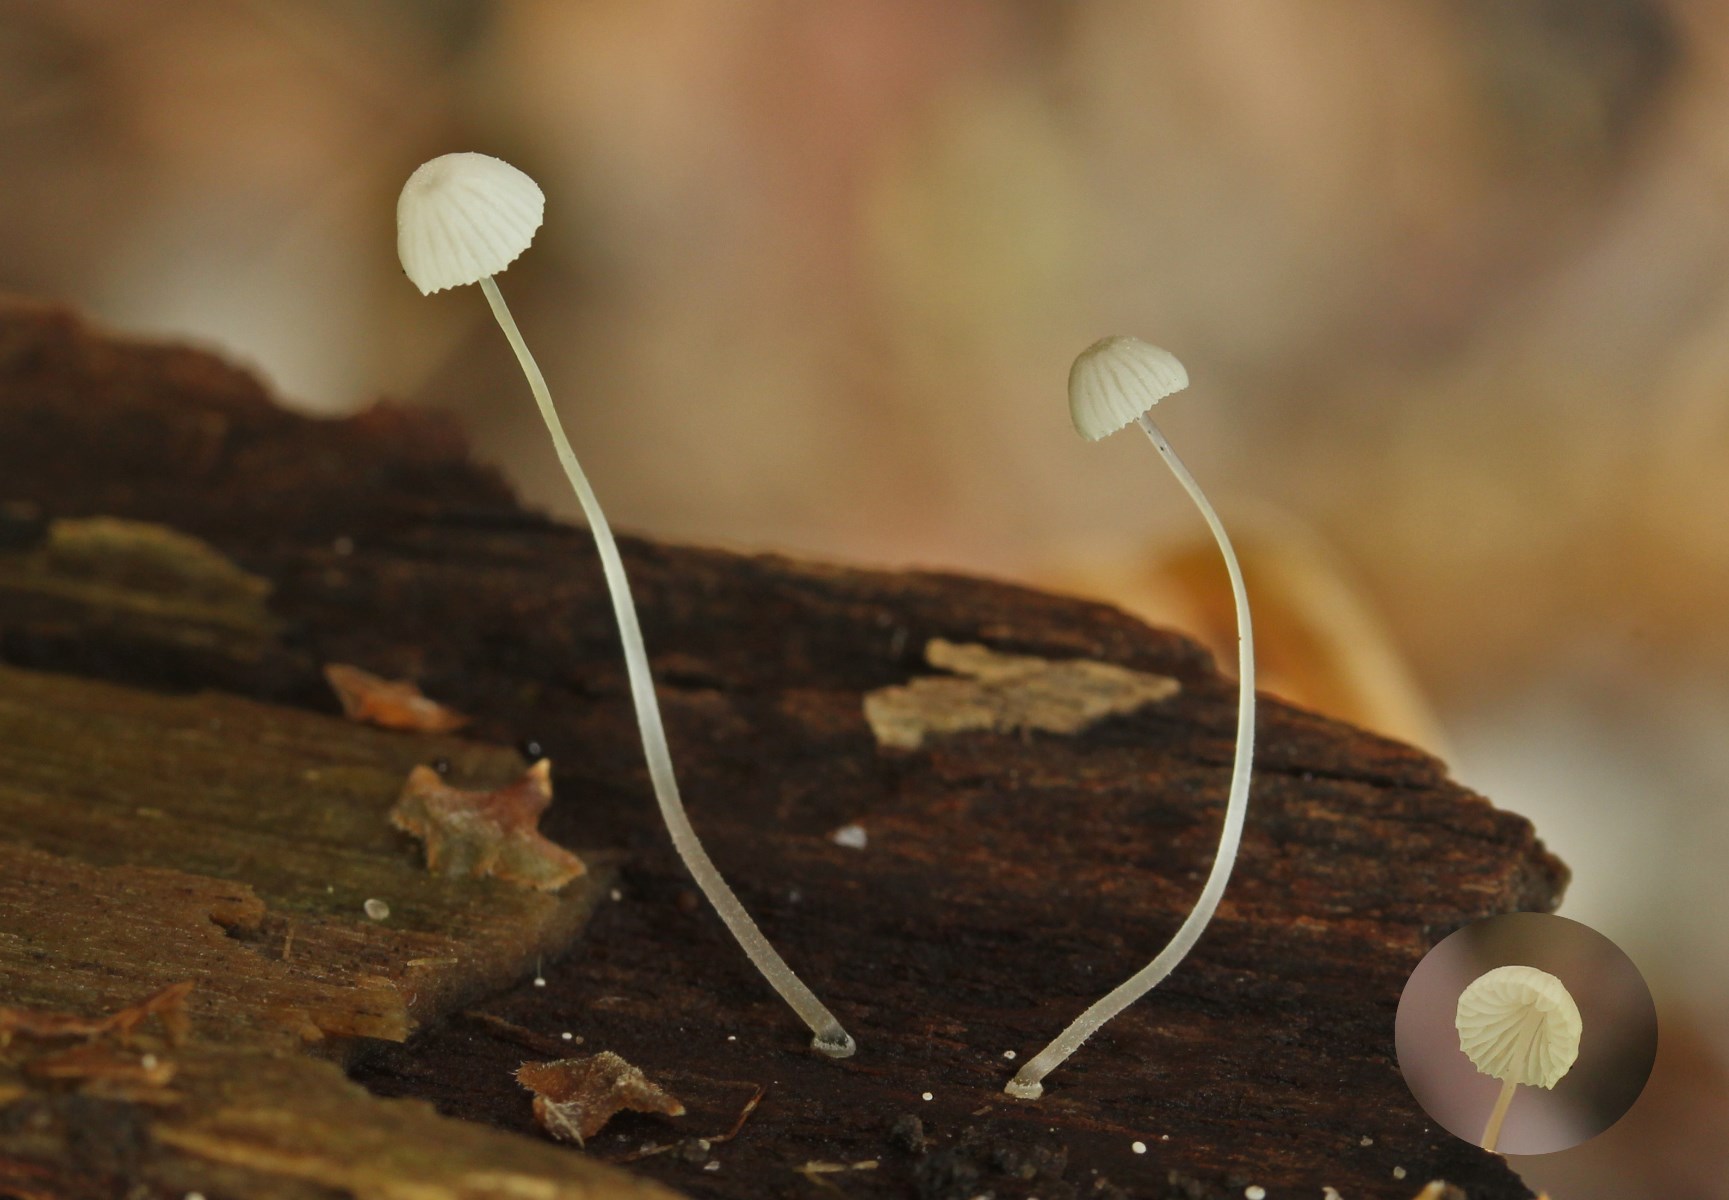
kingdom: Fungi
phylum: Basidiomycota
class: Agaricomycetes
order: Agaricales
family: Mycenaceae
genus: Mycena
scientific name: Mycena tenerrima
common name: pudret huesvamp
